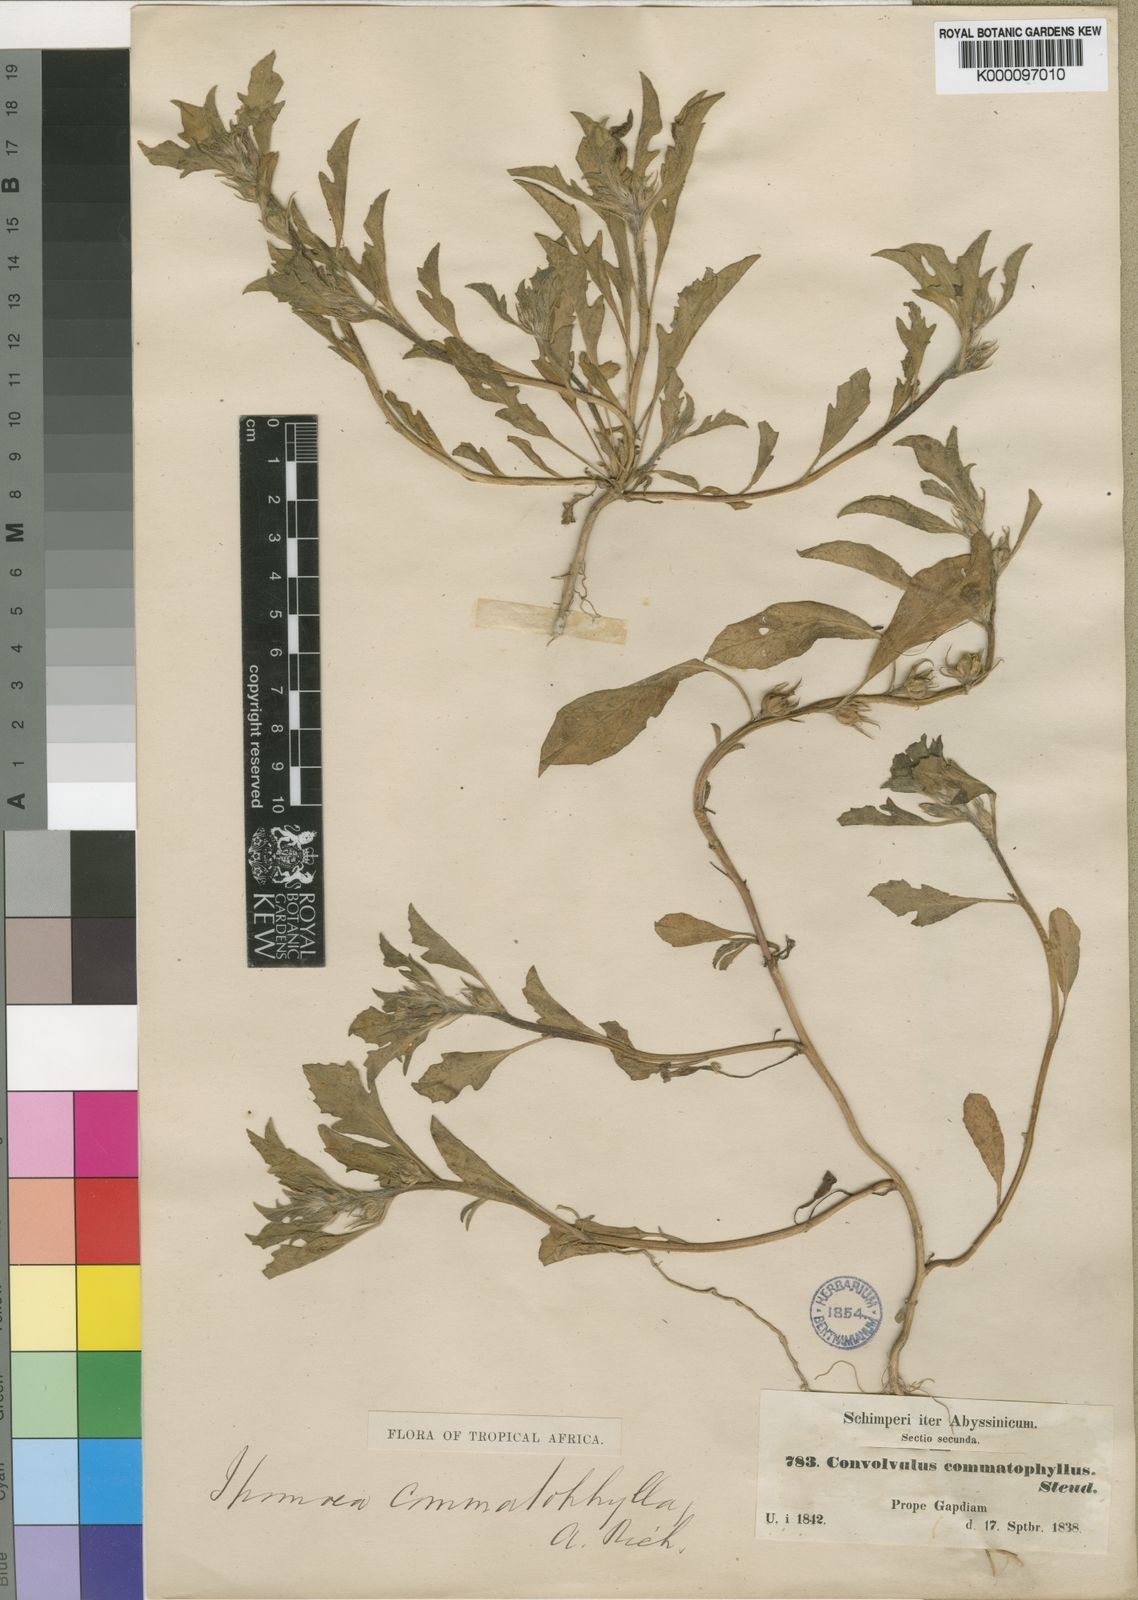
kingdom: Plantae
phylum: Tracheophyta
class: Magnoliopsida
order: Solanales
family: Convolvulaceae
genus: Ipomoea
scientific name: Ipomoea polymorpha
